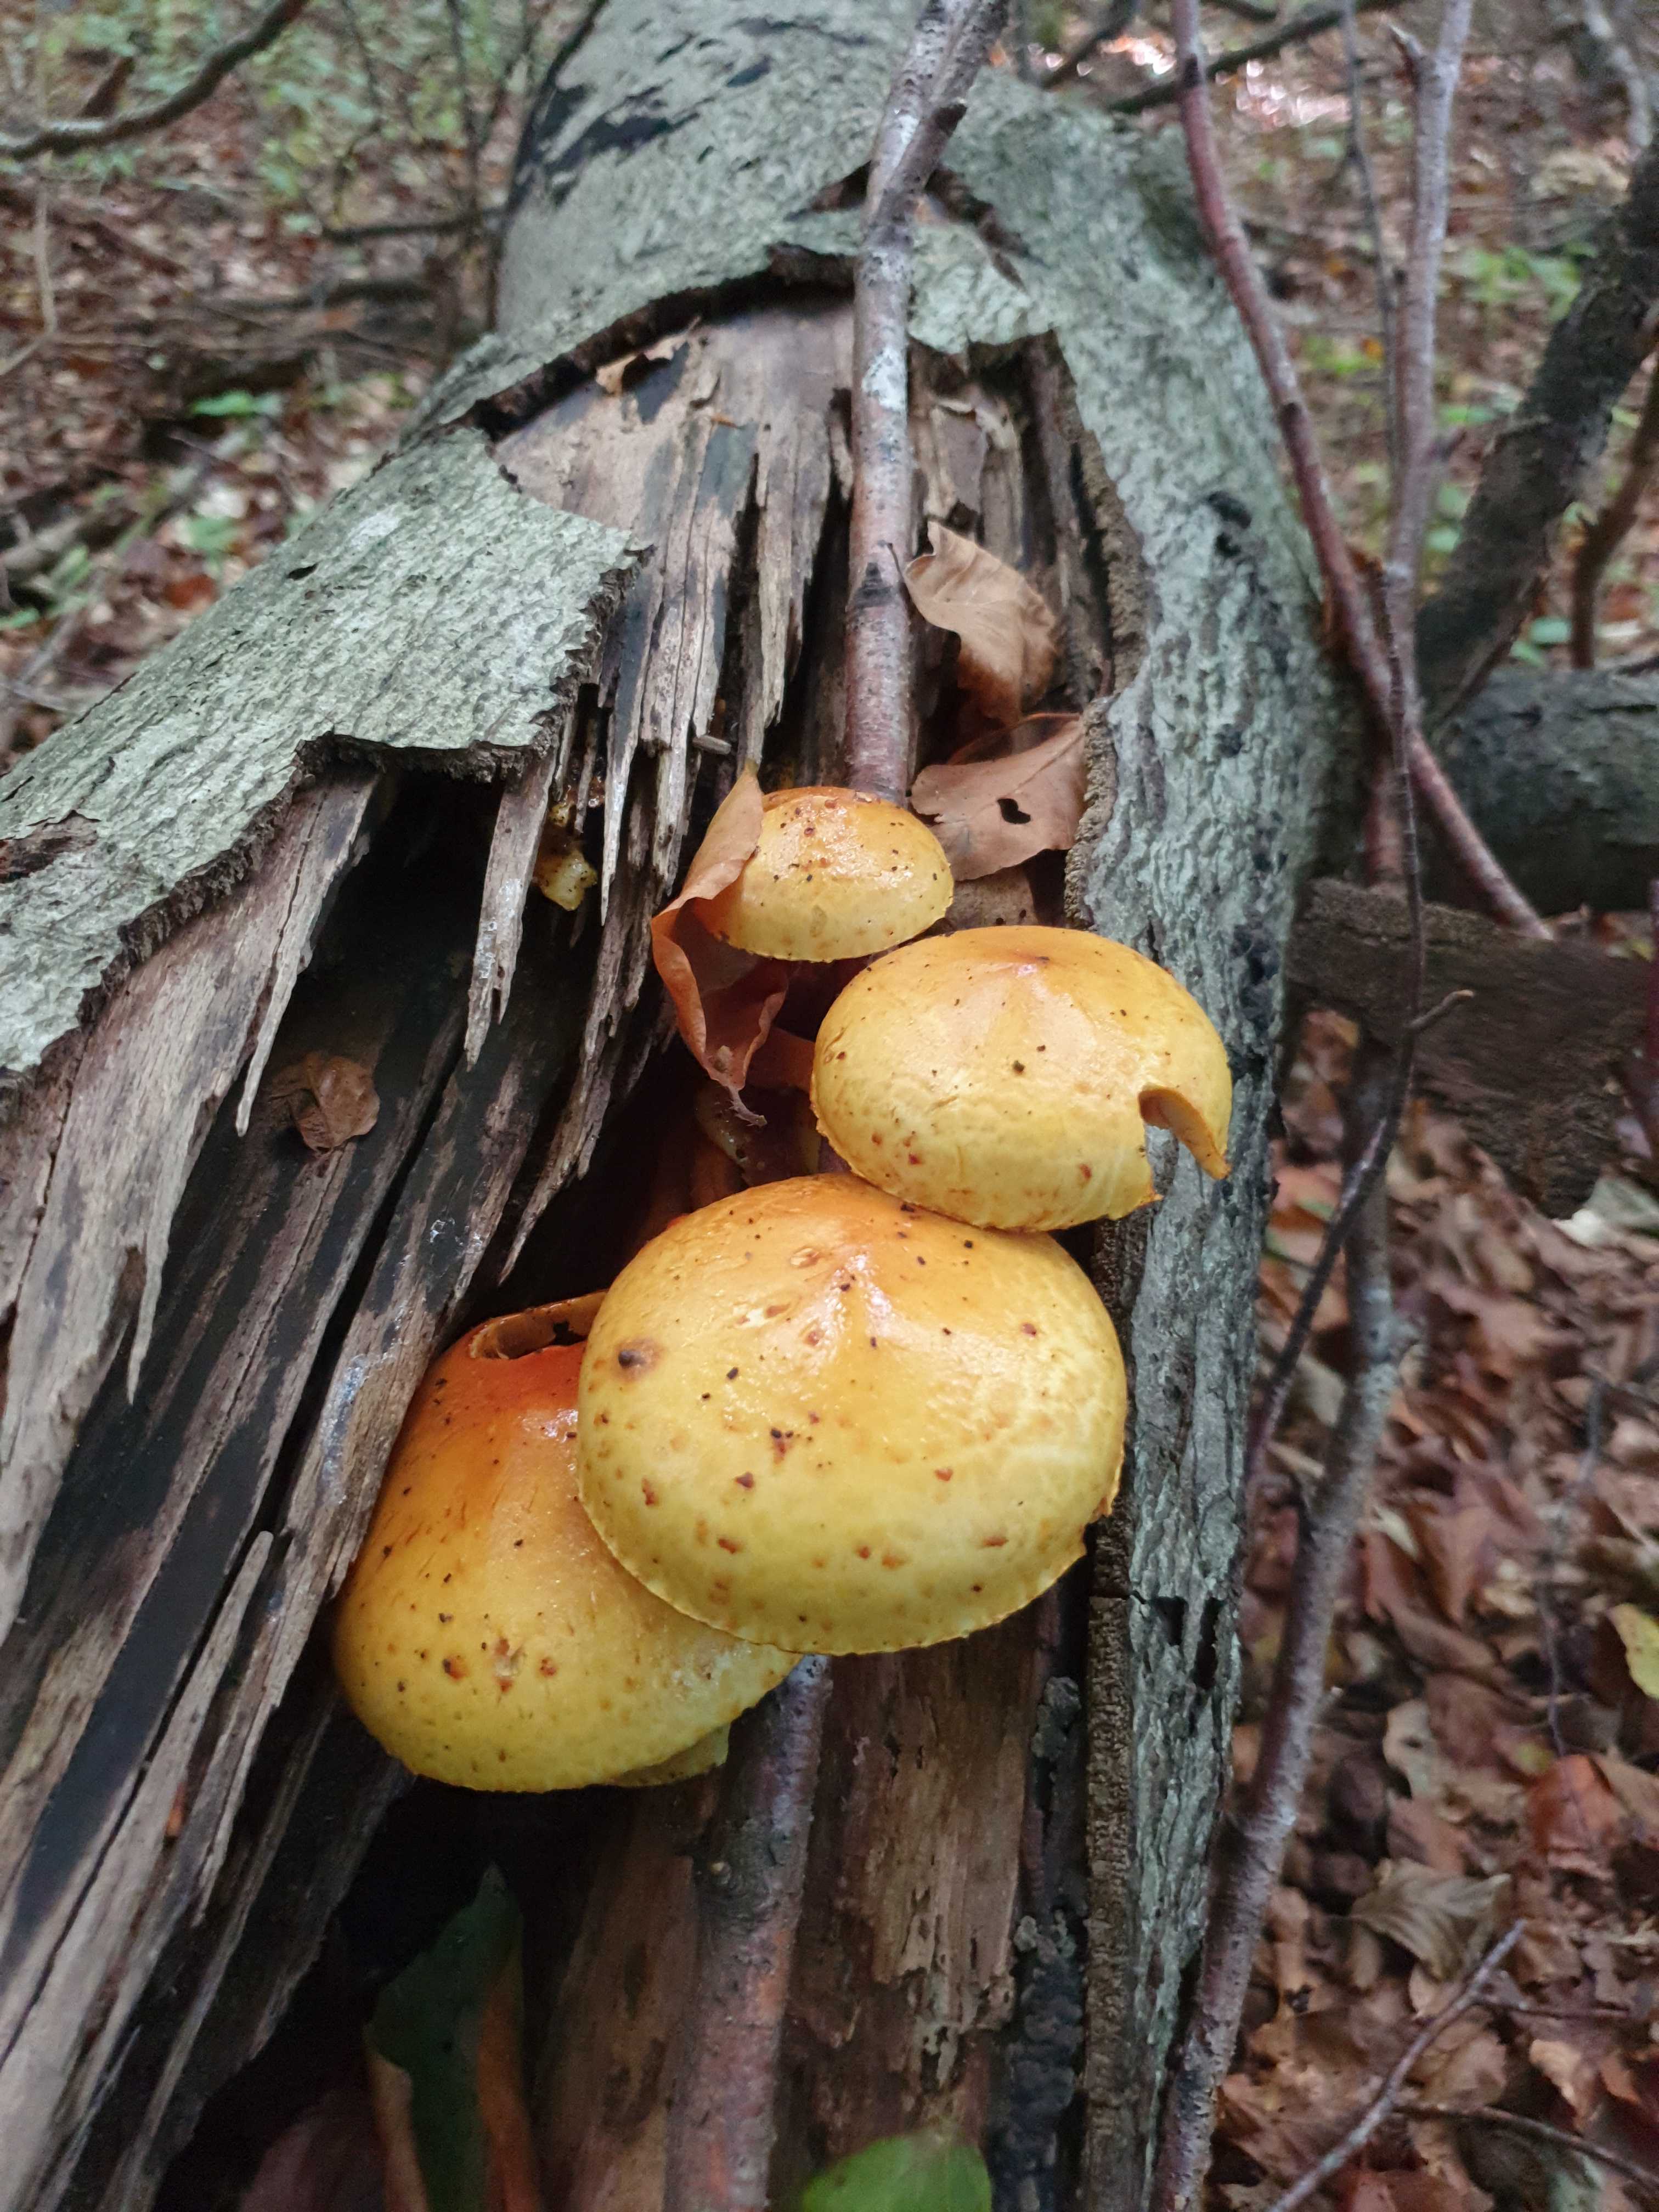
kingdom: Fungi
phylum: Basidiomycota
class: Agaricomycetes
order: Agaricales
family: Strophariaceae
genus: Pholiota
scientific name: Pholiota adiposa
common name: højtsiddende skælhat
